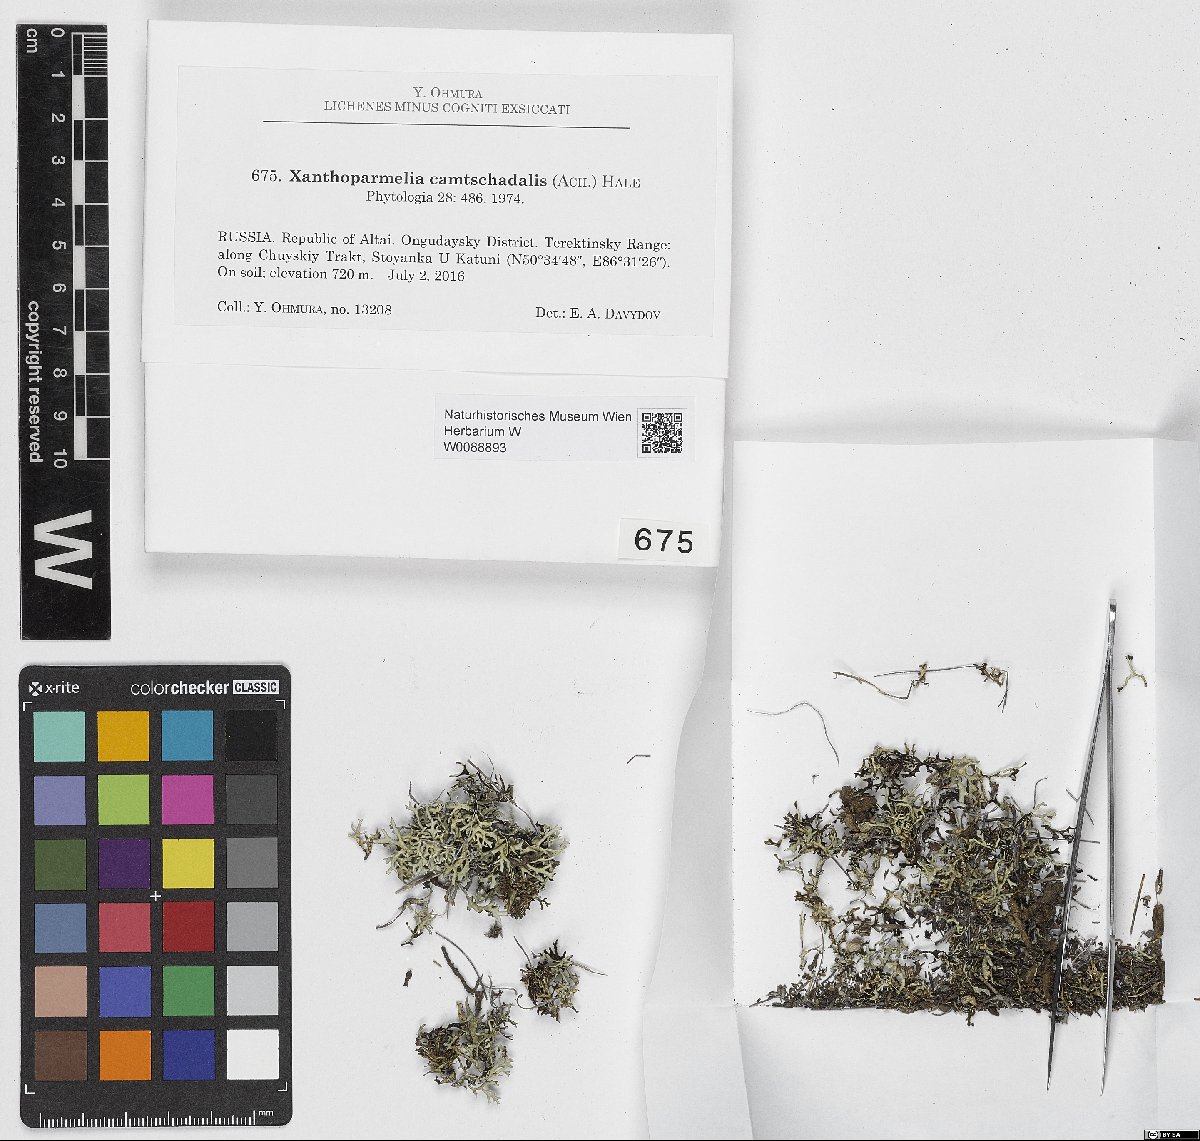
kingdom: Fungi
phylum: Ascomycota
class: Lecanoromycetes
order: Lecanorales
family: Parmeliaceae
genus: Xanthoparmelia
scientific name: Xanthoparmelia camtschadalis
